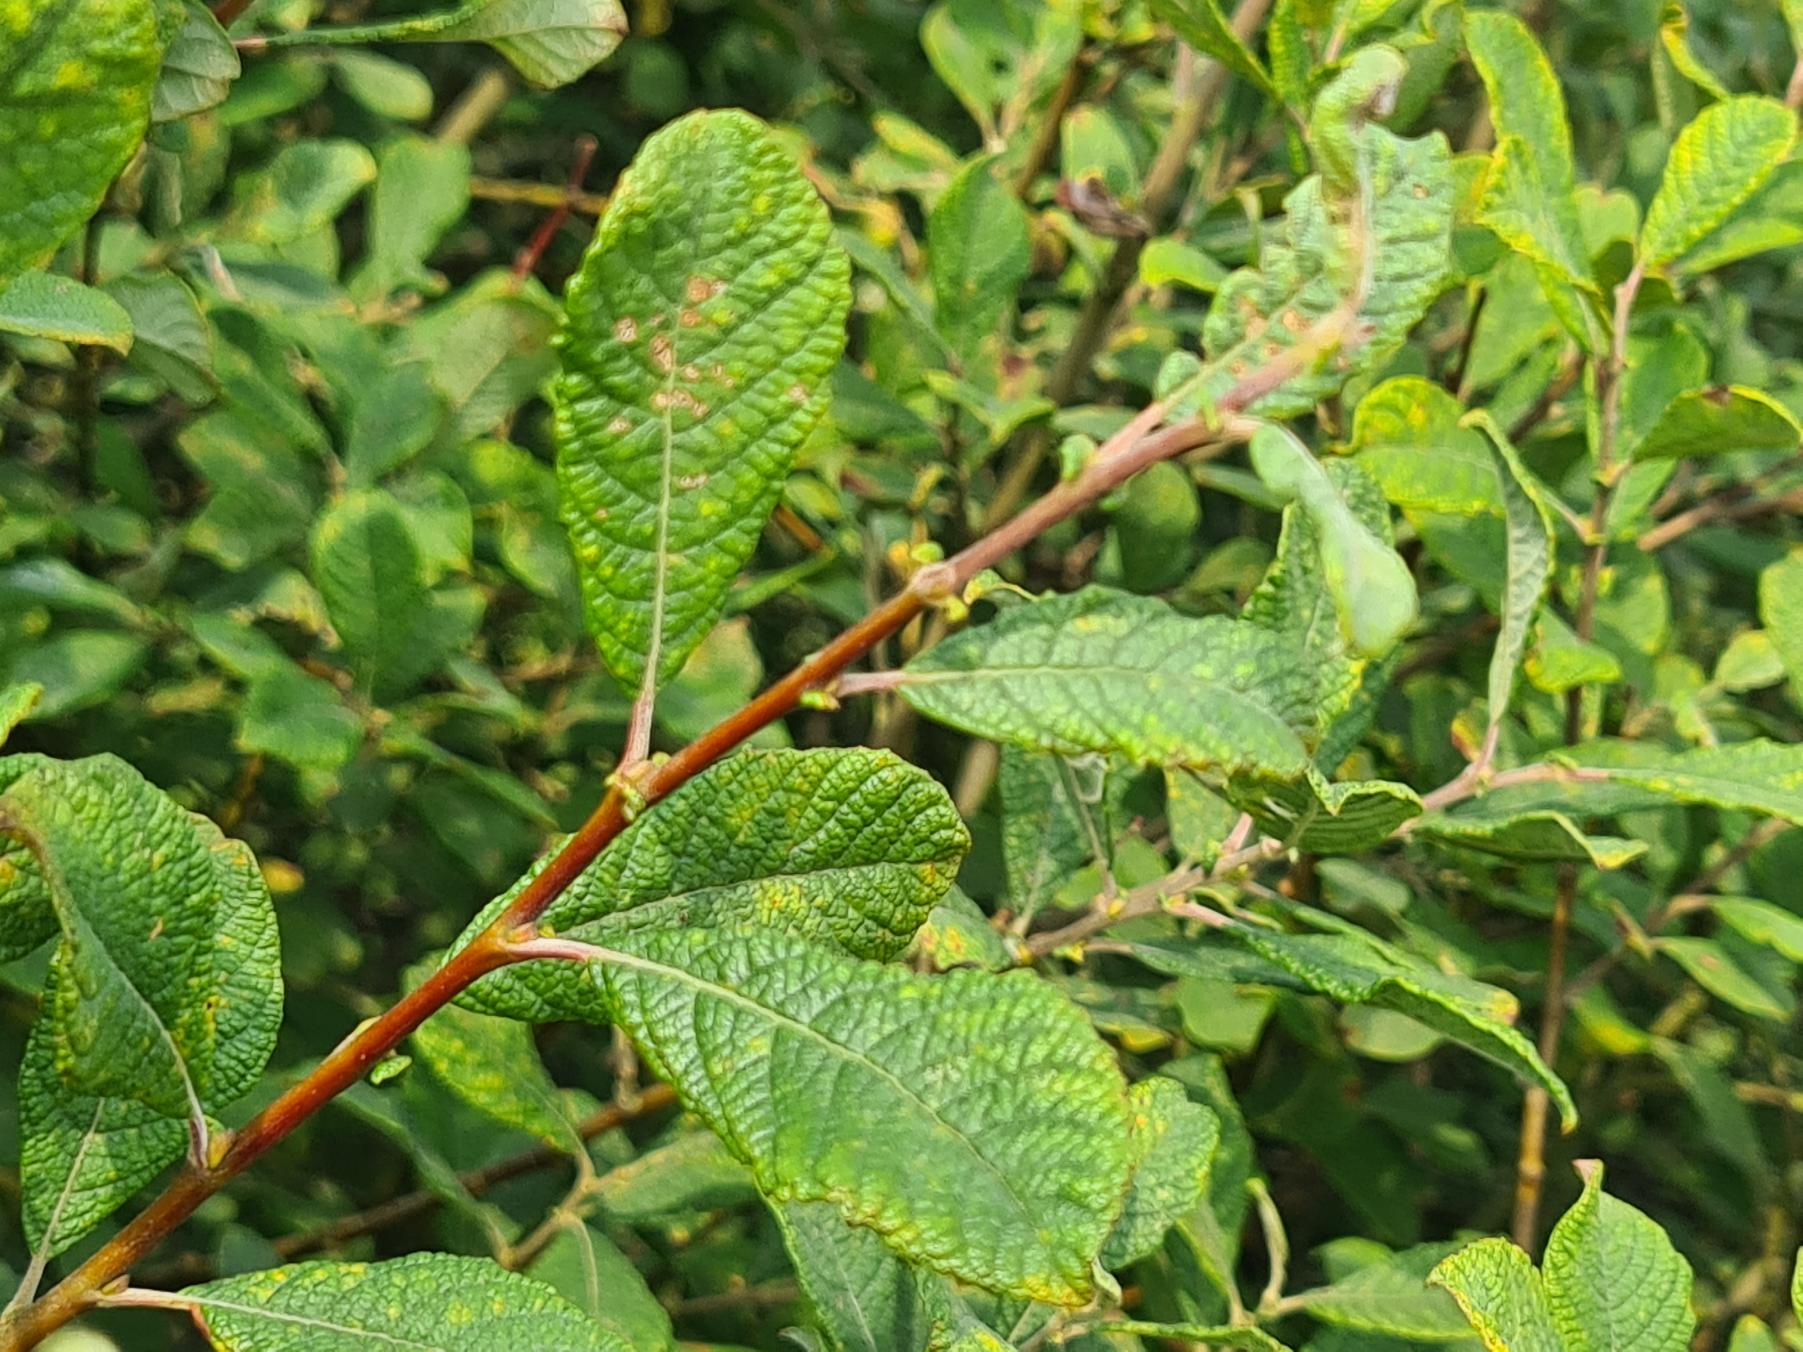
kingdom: Plantae
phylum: Tracheophyta
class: Magnoliopsida
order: Malpighiales
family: Salicaceae
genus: Salix
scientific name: Salix aurita
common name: Øret pil
